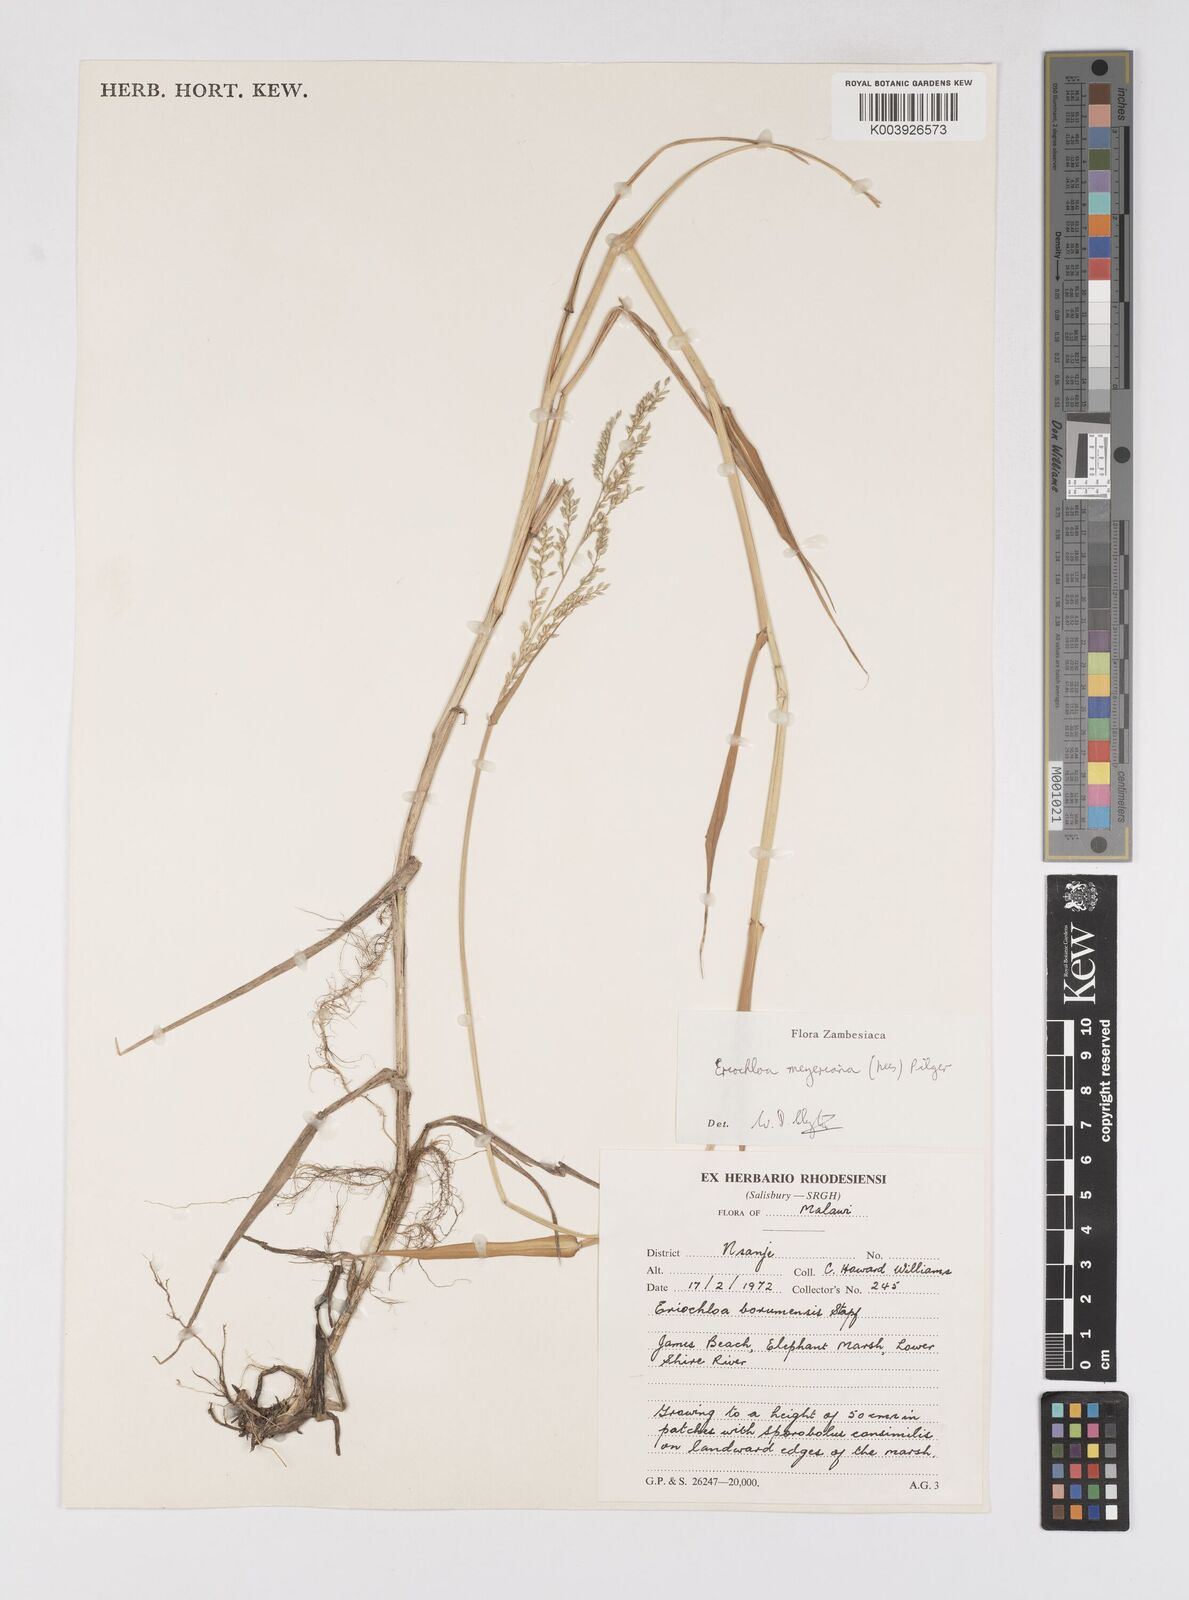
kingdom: Plantae
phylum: Tracheophyta
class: Liliopsida
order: Poales
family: Poaceae
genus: Eriochloa
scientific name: Eriochloa meyeriana
